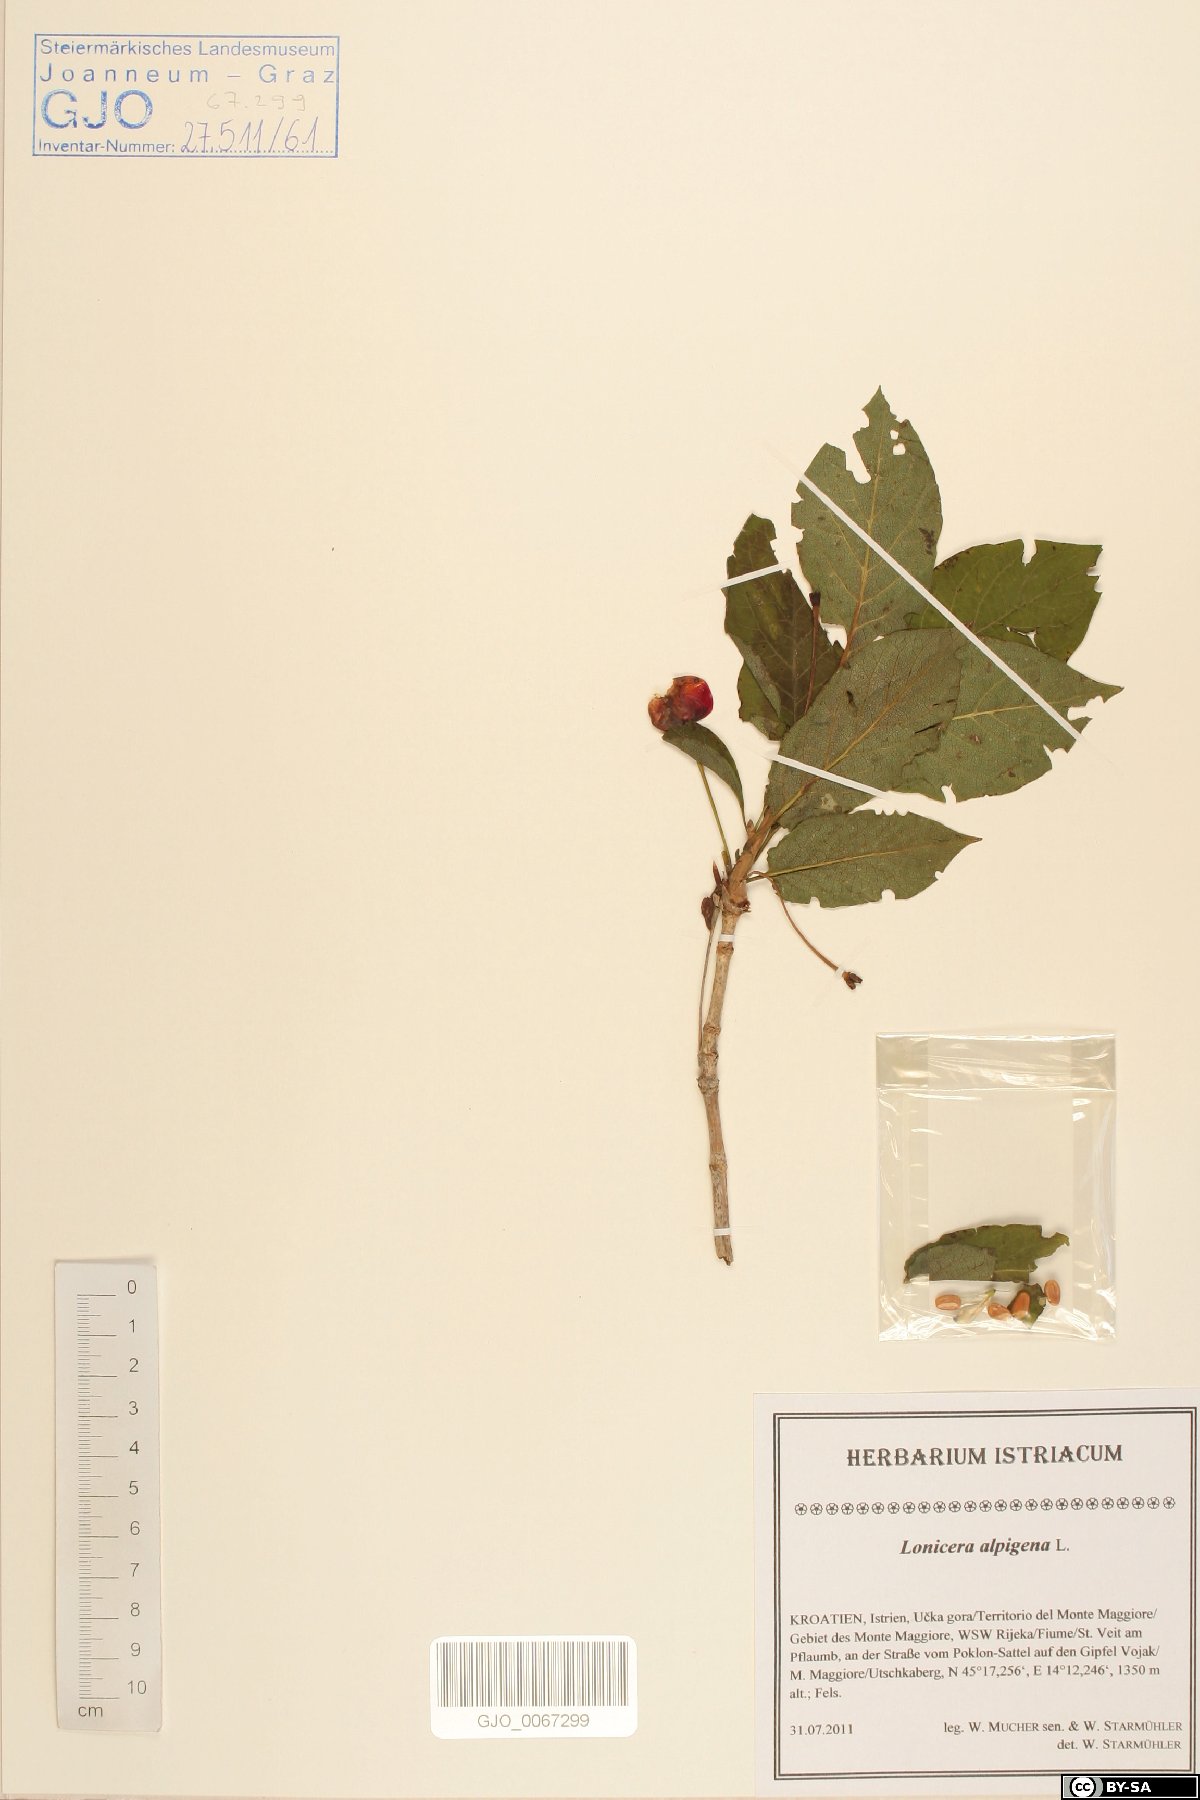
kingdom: Plantae
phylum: Tracheophyta
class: Magnoliopsida
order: Dipsacales
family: Caprifoliaceae
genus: Lonicera
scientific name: Lonicera alpigena
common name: Alpine honeysuckle
